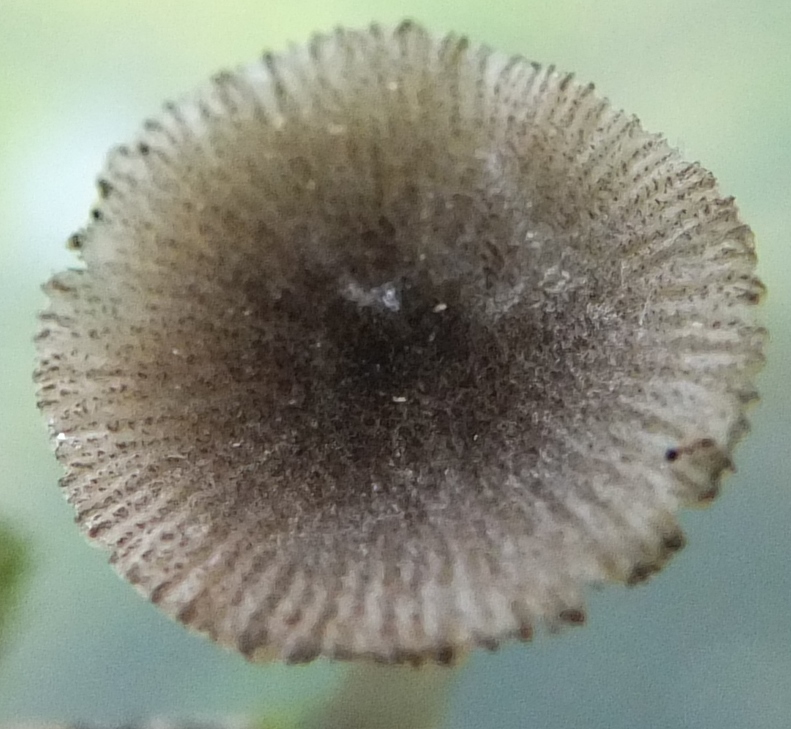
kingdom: Fungi
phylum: Basidiomycota
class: Agaricomycetes
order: Agaricales
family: Pluteaceae
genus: Pluteus
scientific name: Pluteus
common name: stivhåret skærmhat
